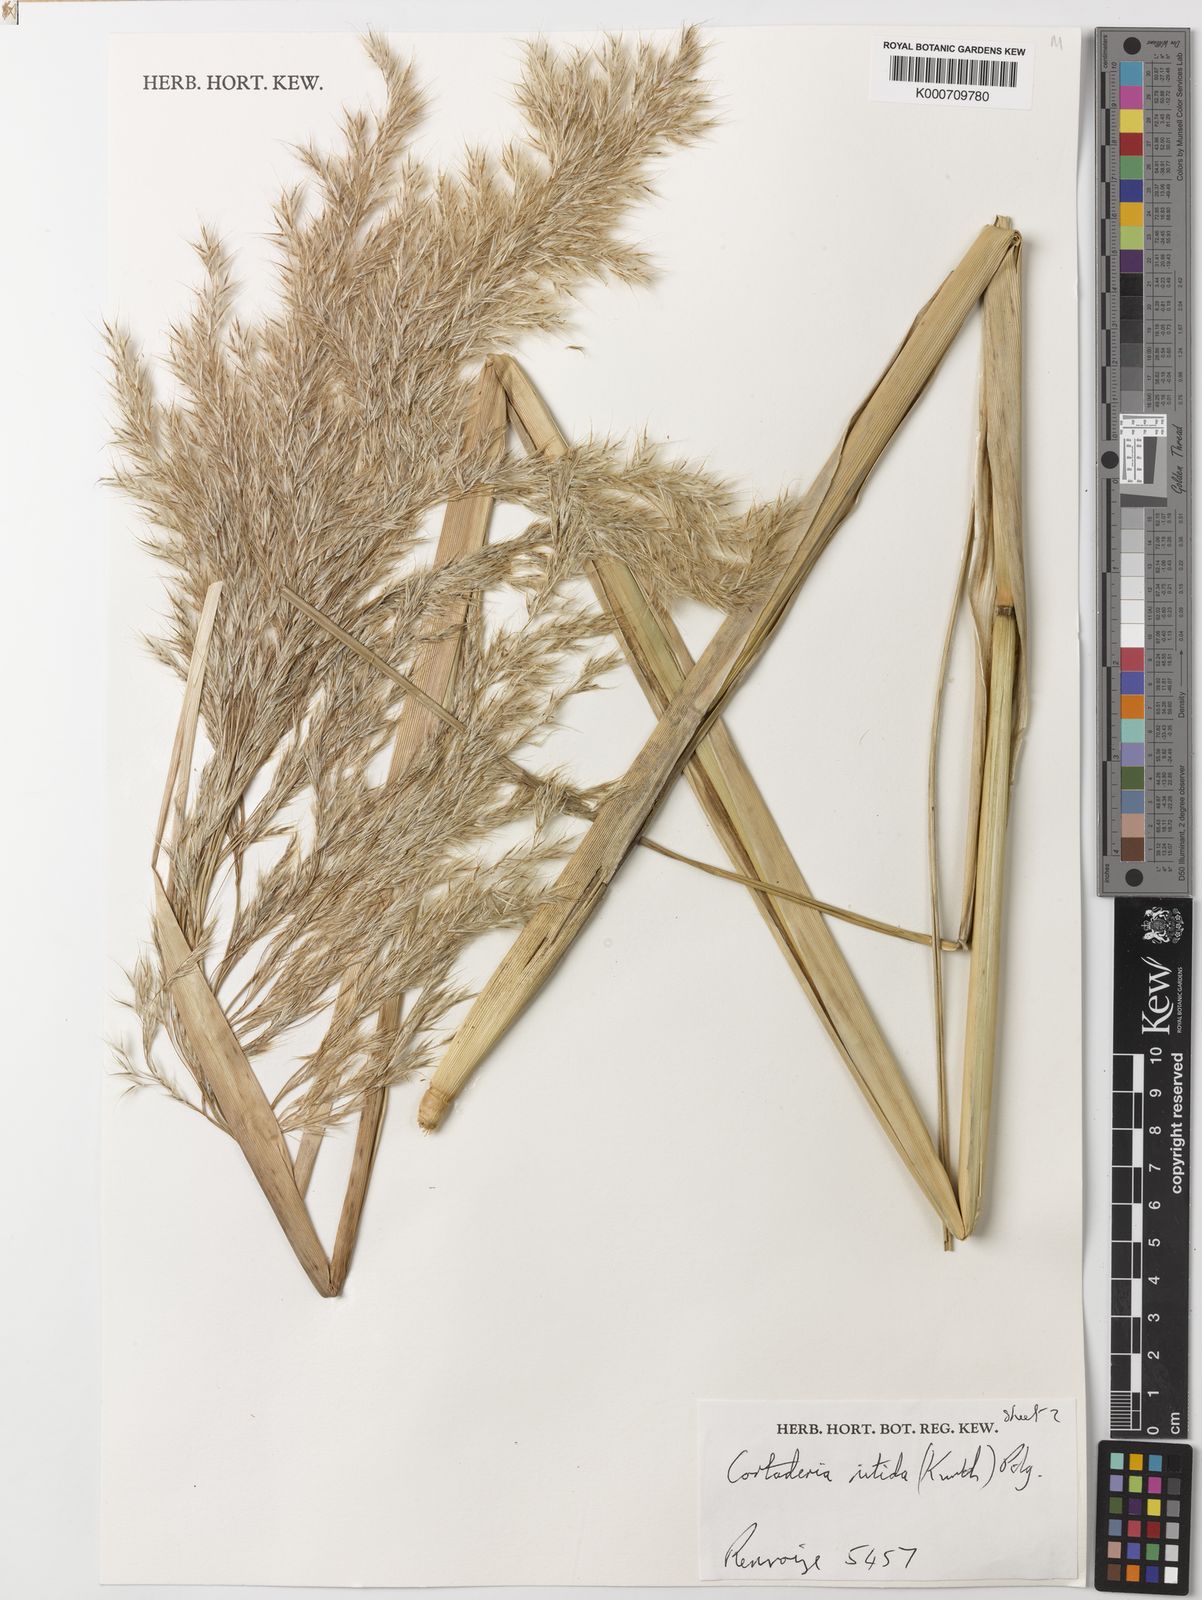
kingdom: Plantae
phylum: Tracheophyta
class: Liliopsida
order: Poales
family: Poaceae
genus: Cortaderia
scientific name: Cortaderia nitida
